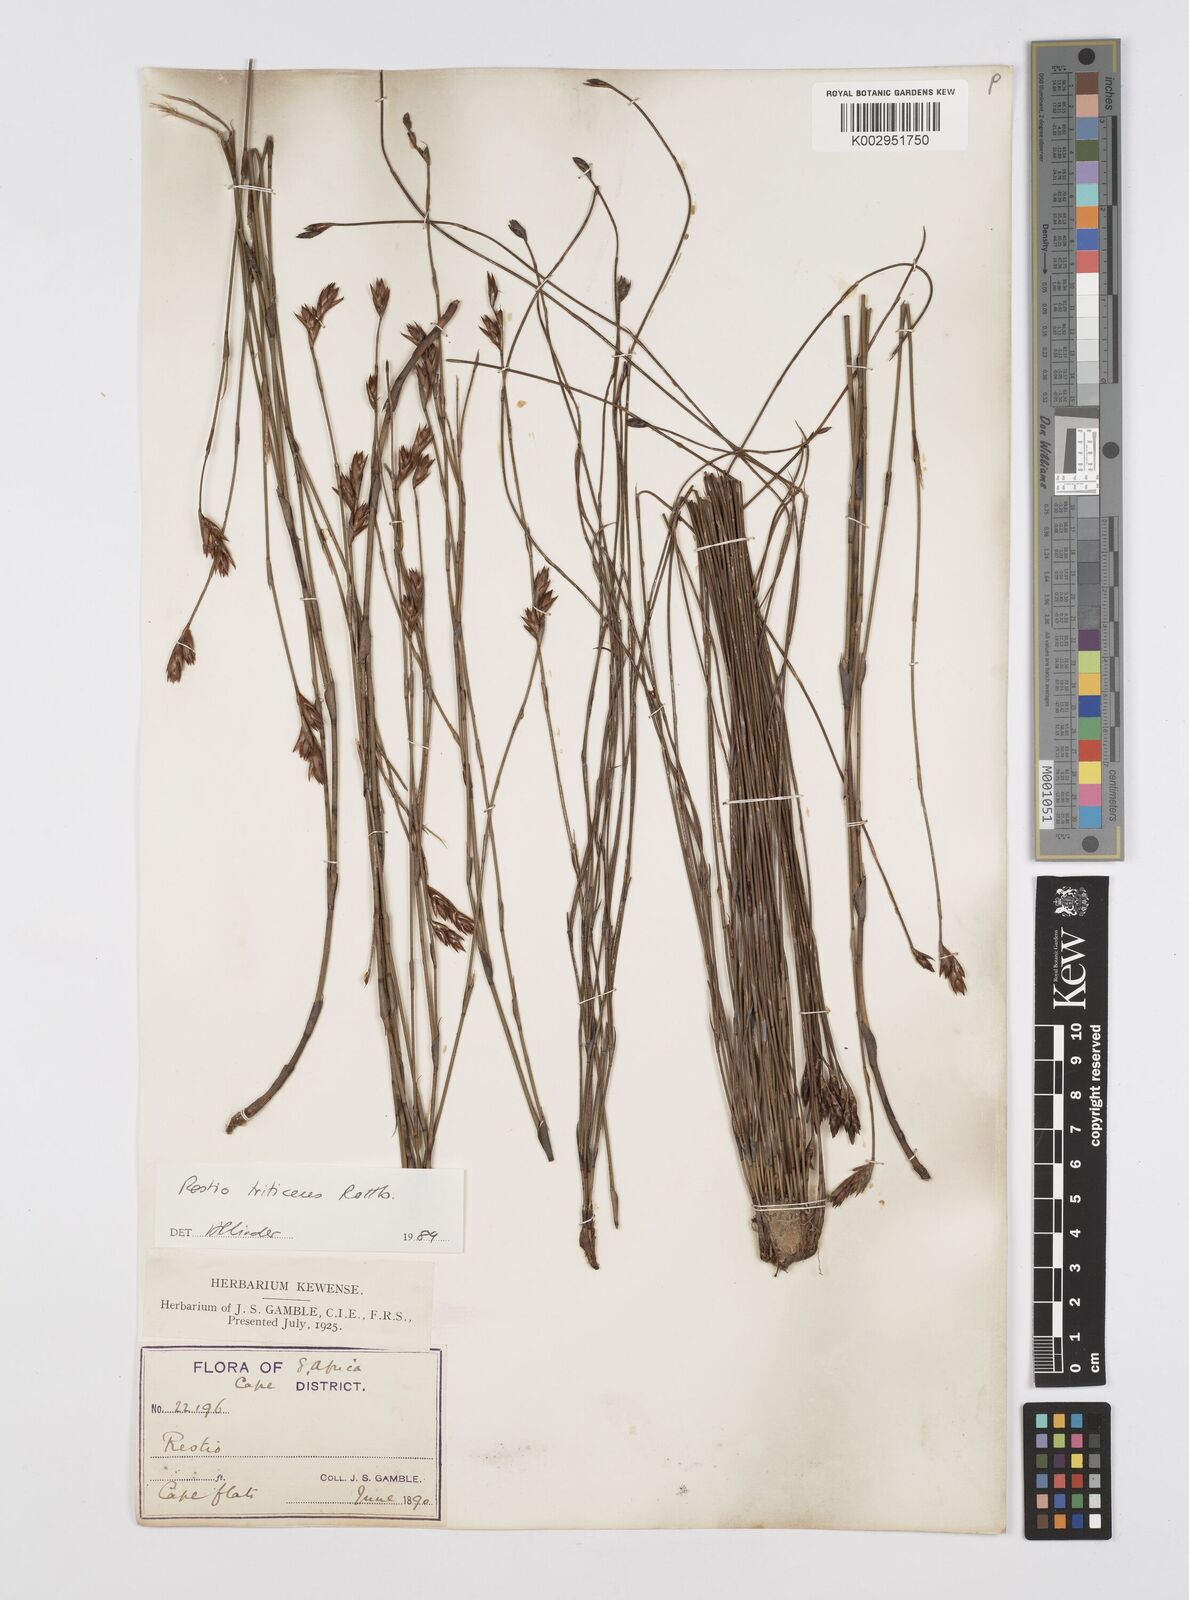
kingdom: Plantae
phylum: Tracheophyta
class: Liliopsida
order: Poales
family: Restionaceae
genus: Restio
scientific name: Restio triticeus
